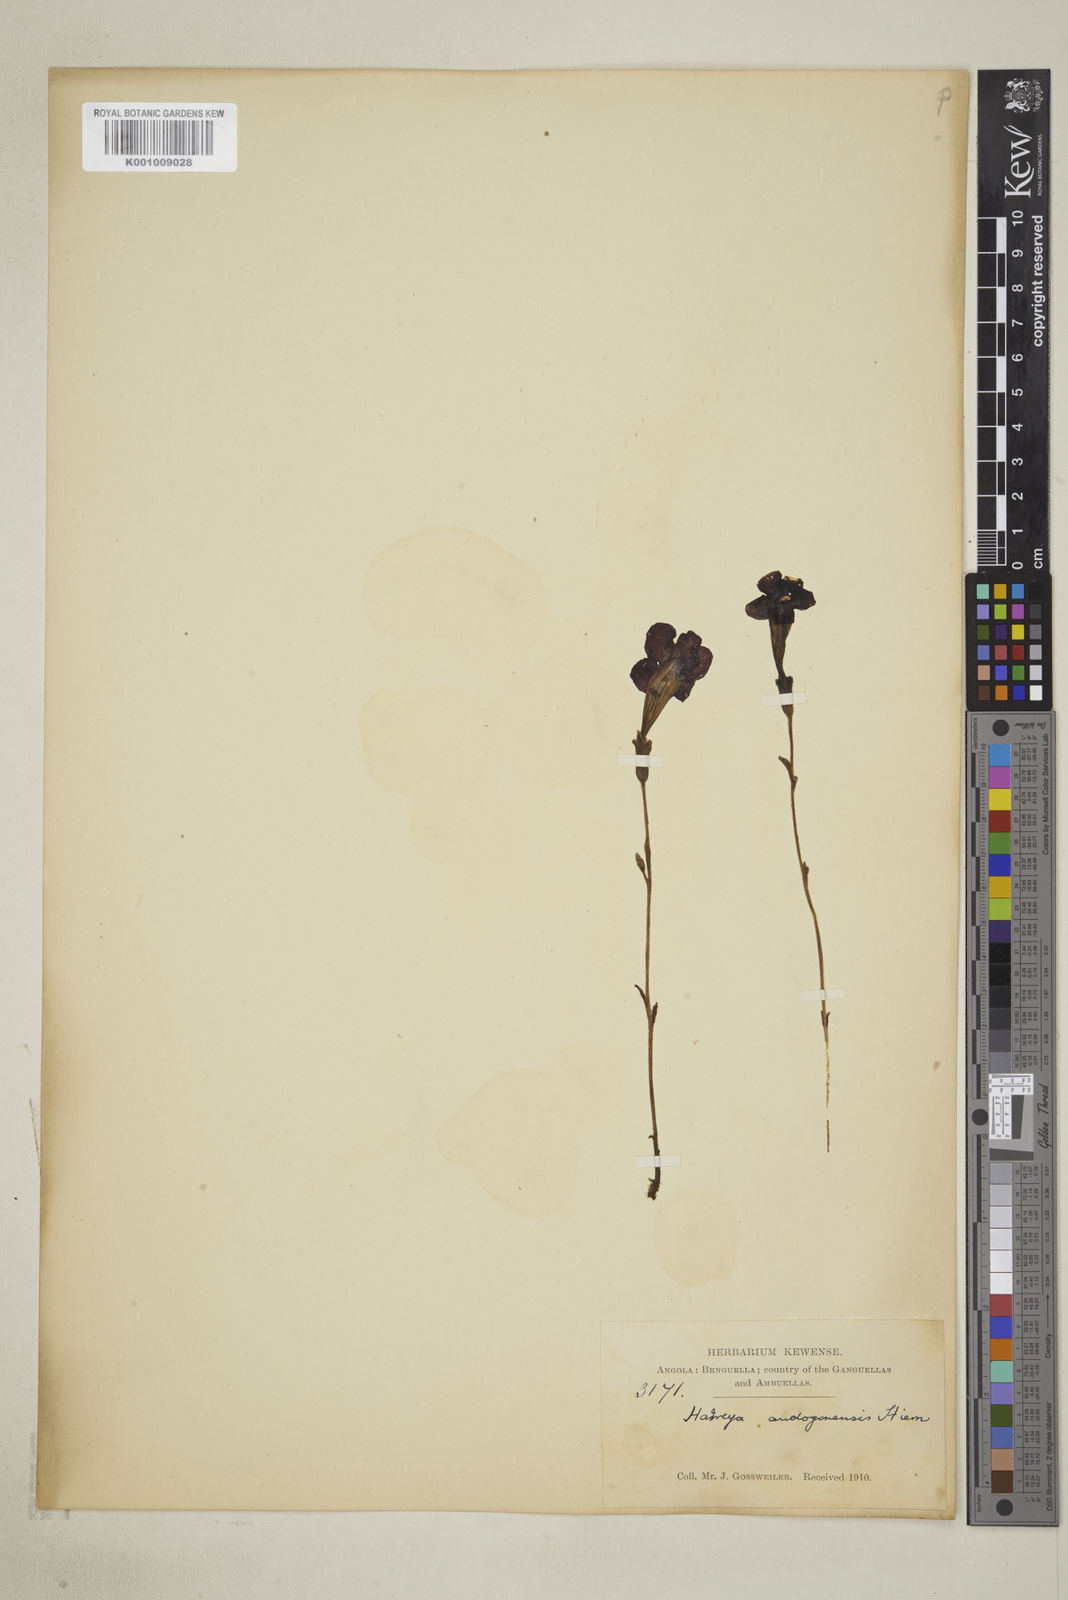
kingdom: Plantae
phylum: Tracheophyta
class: Magnoliopsida
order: Lamiales
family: Orobanchaceae
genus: Harveya
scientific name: Harveya andongensis
